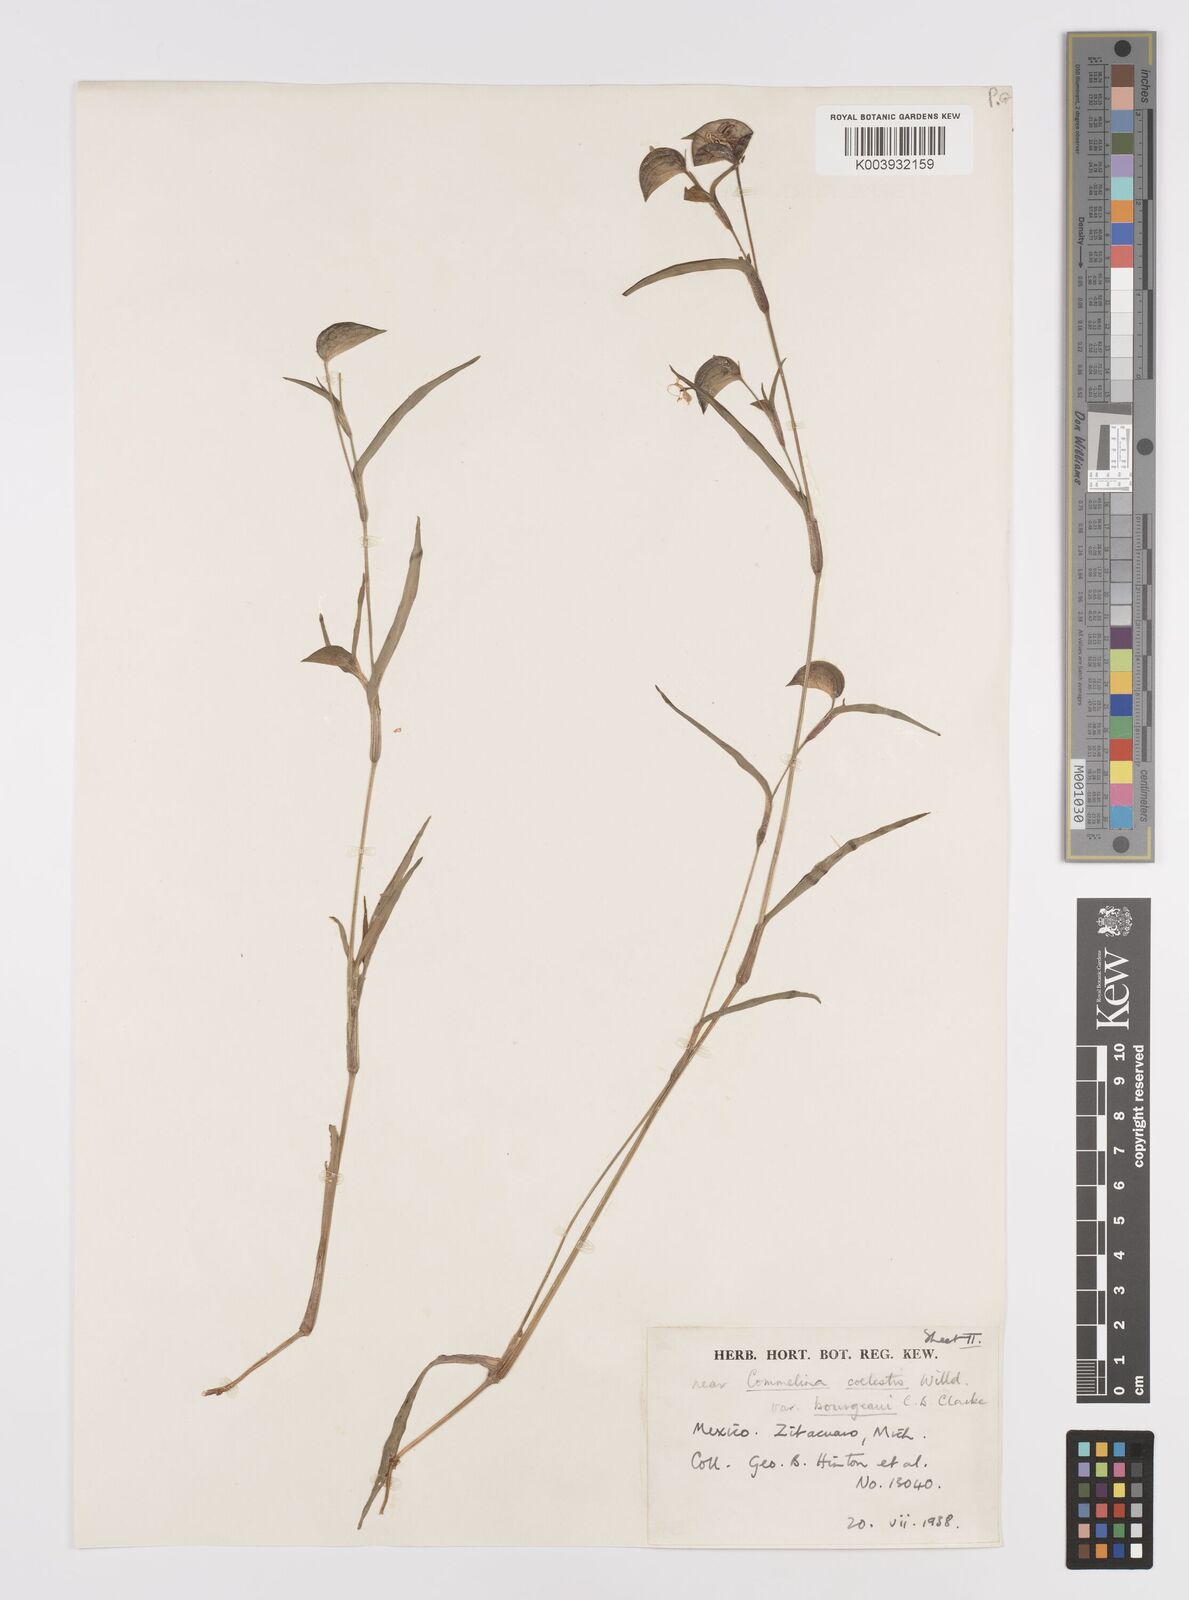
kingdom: Plantae
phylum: Tracheophyta
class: Liliopsida
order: Commelinales
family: Commelinaceae
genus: Commelina
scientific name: Commelina standleyi
